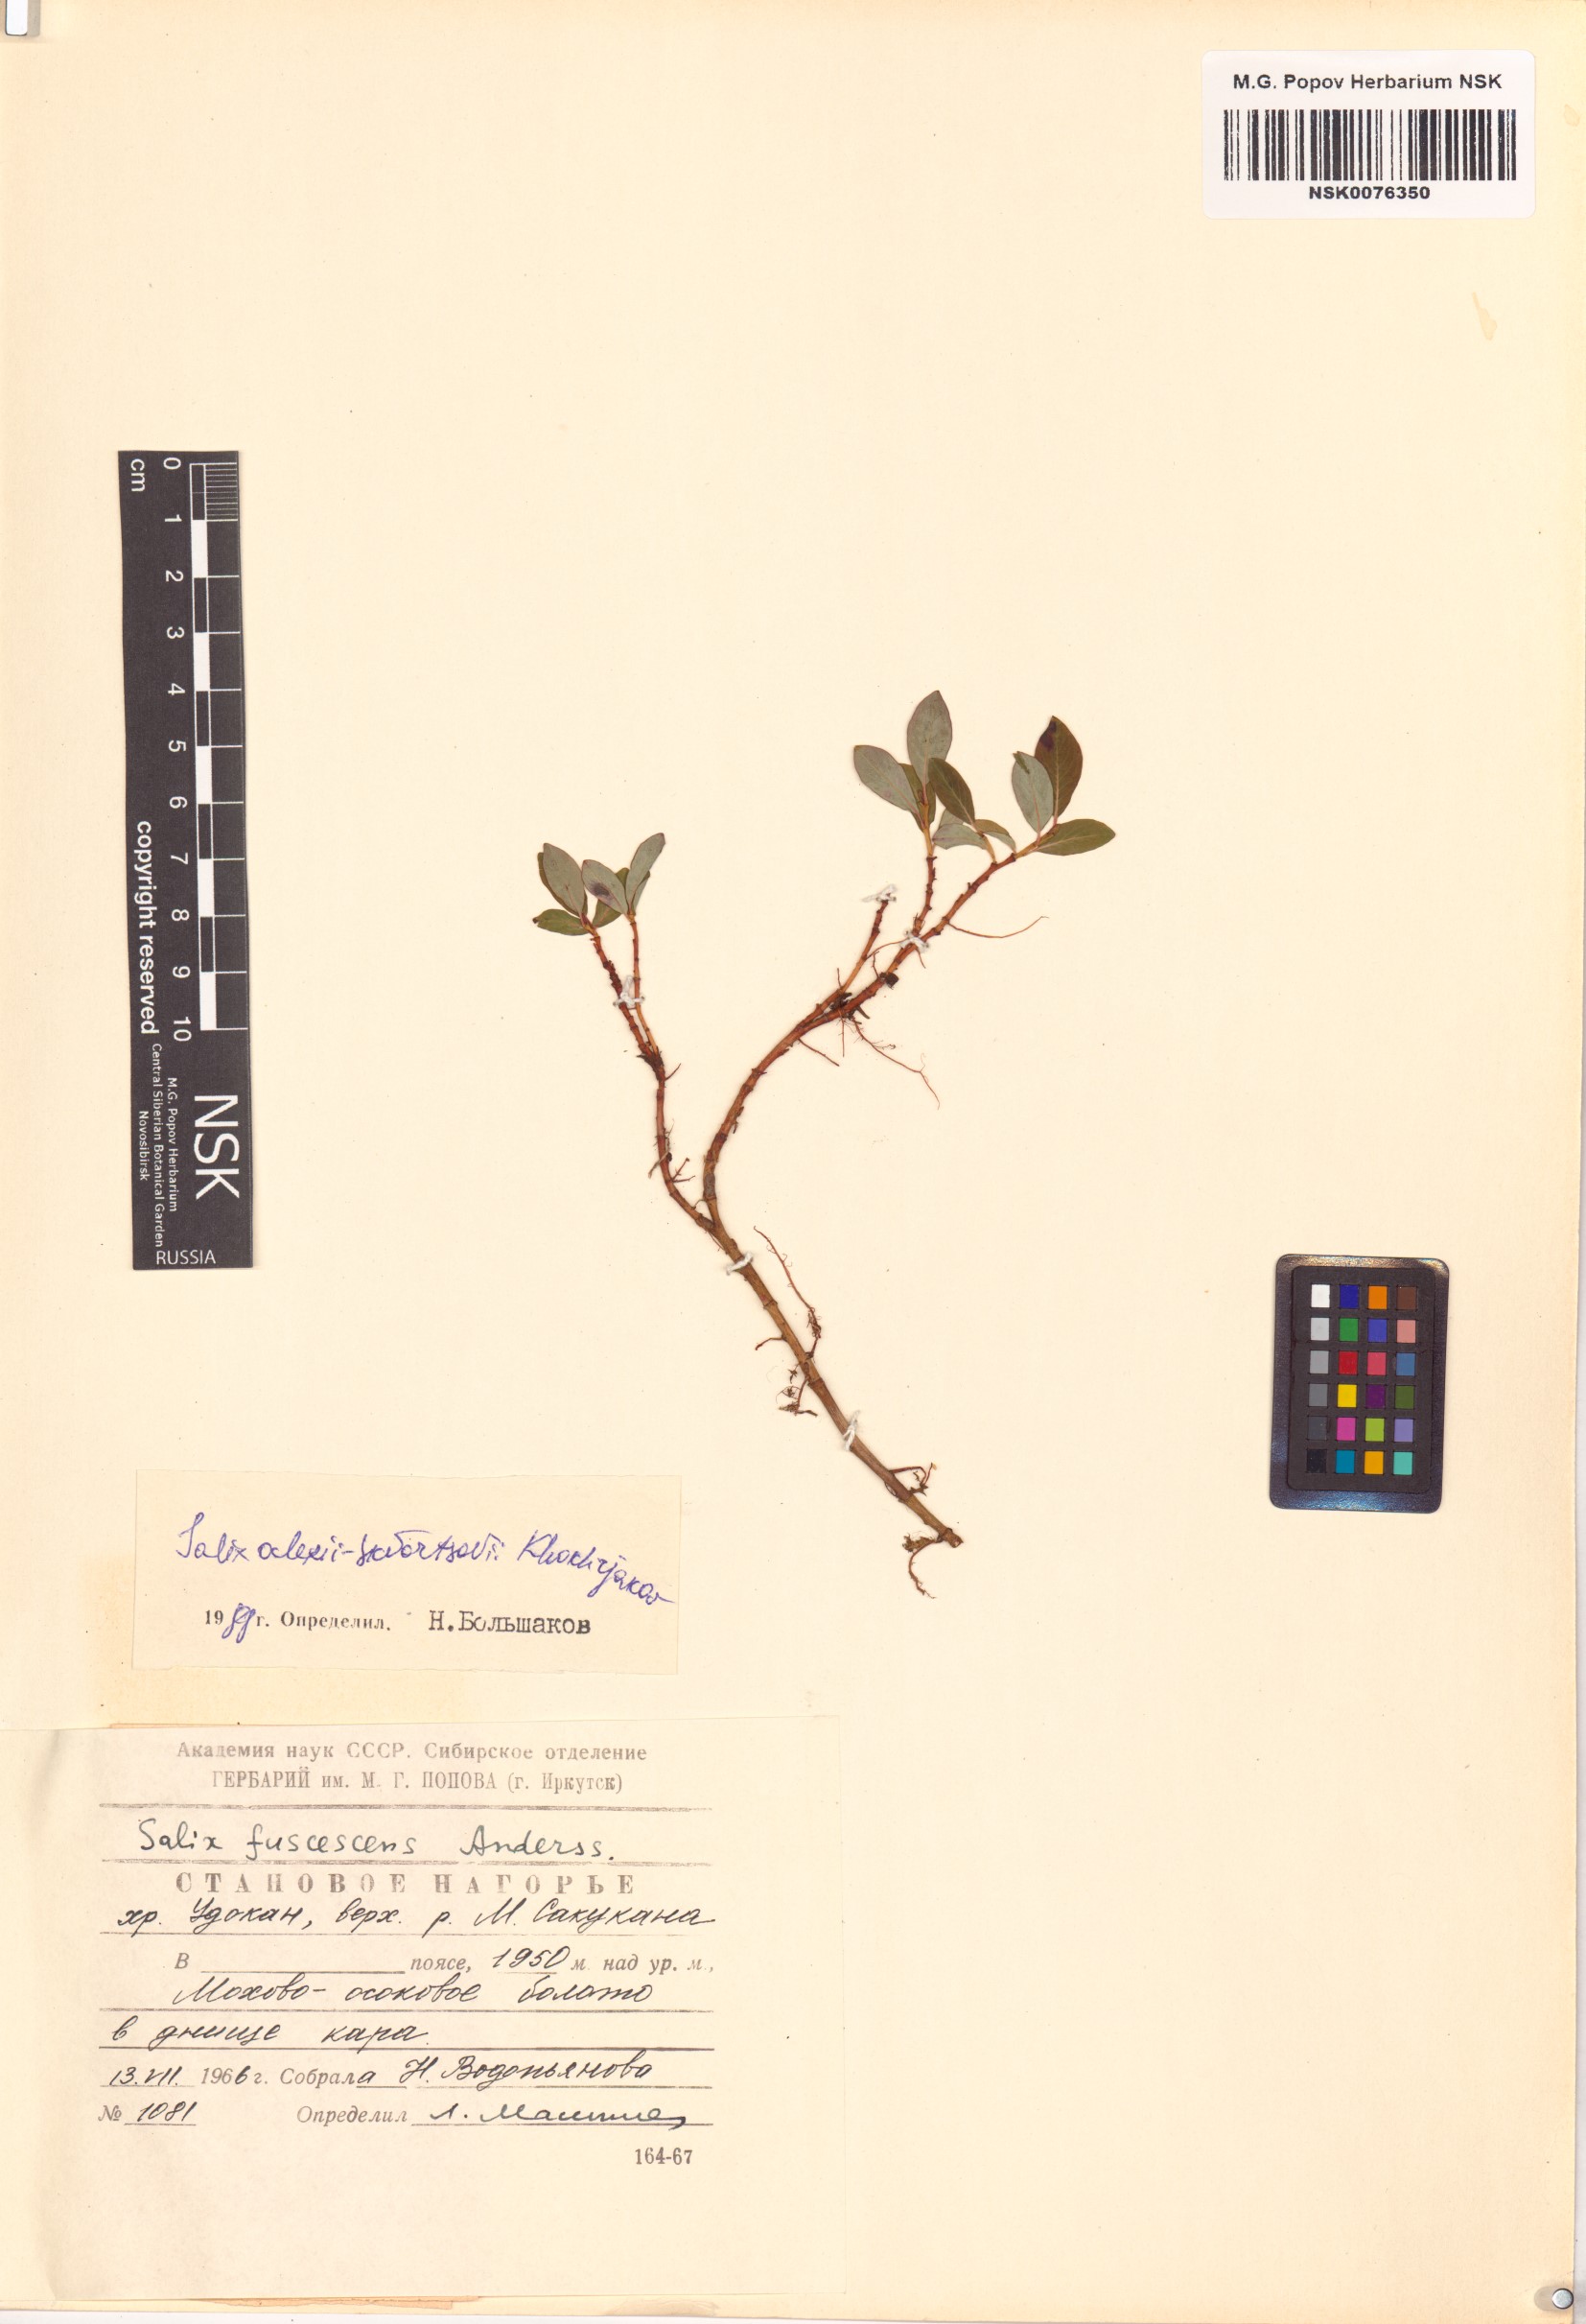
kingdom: Plantae
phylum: Tracheophyta
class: Magnoliopsida
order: Malpighiales
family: Salicaceae
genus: Salix
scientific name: Salix alexii-skvortzovii
